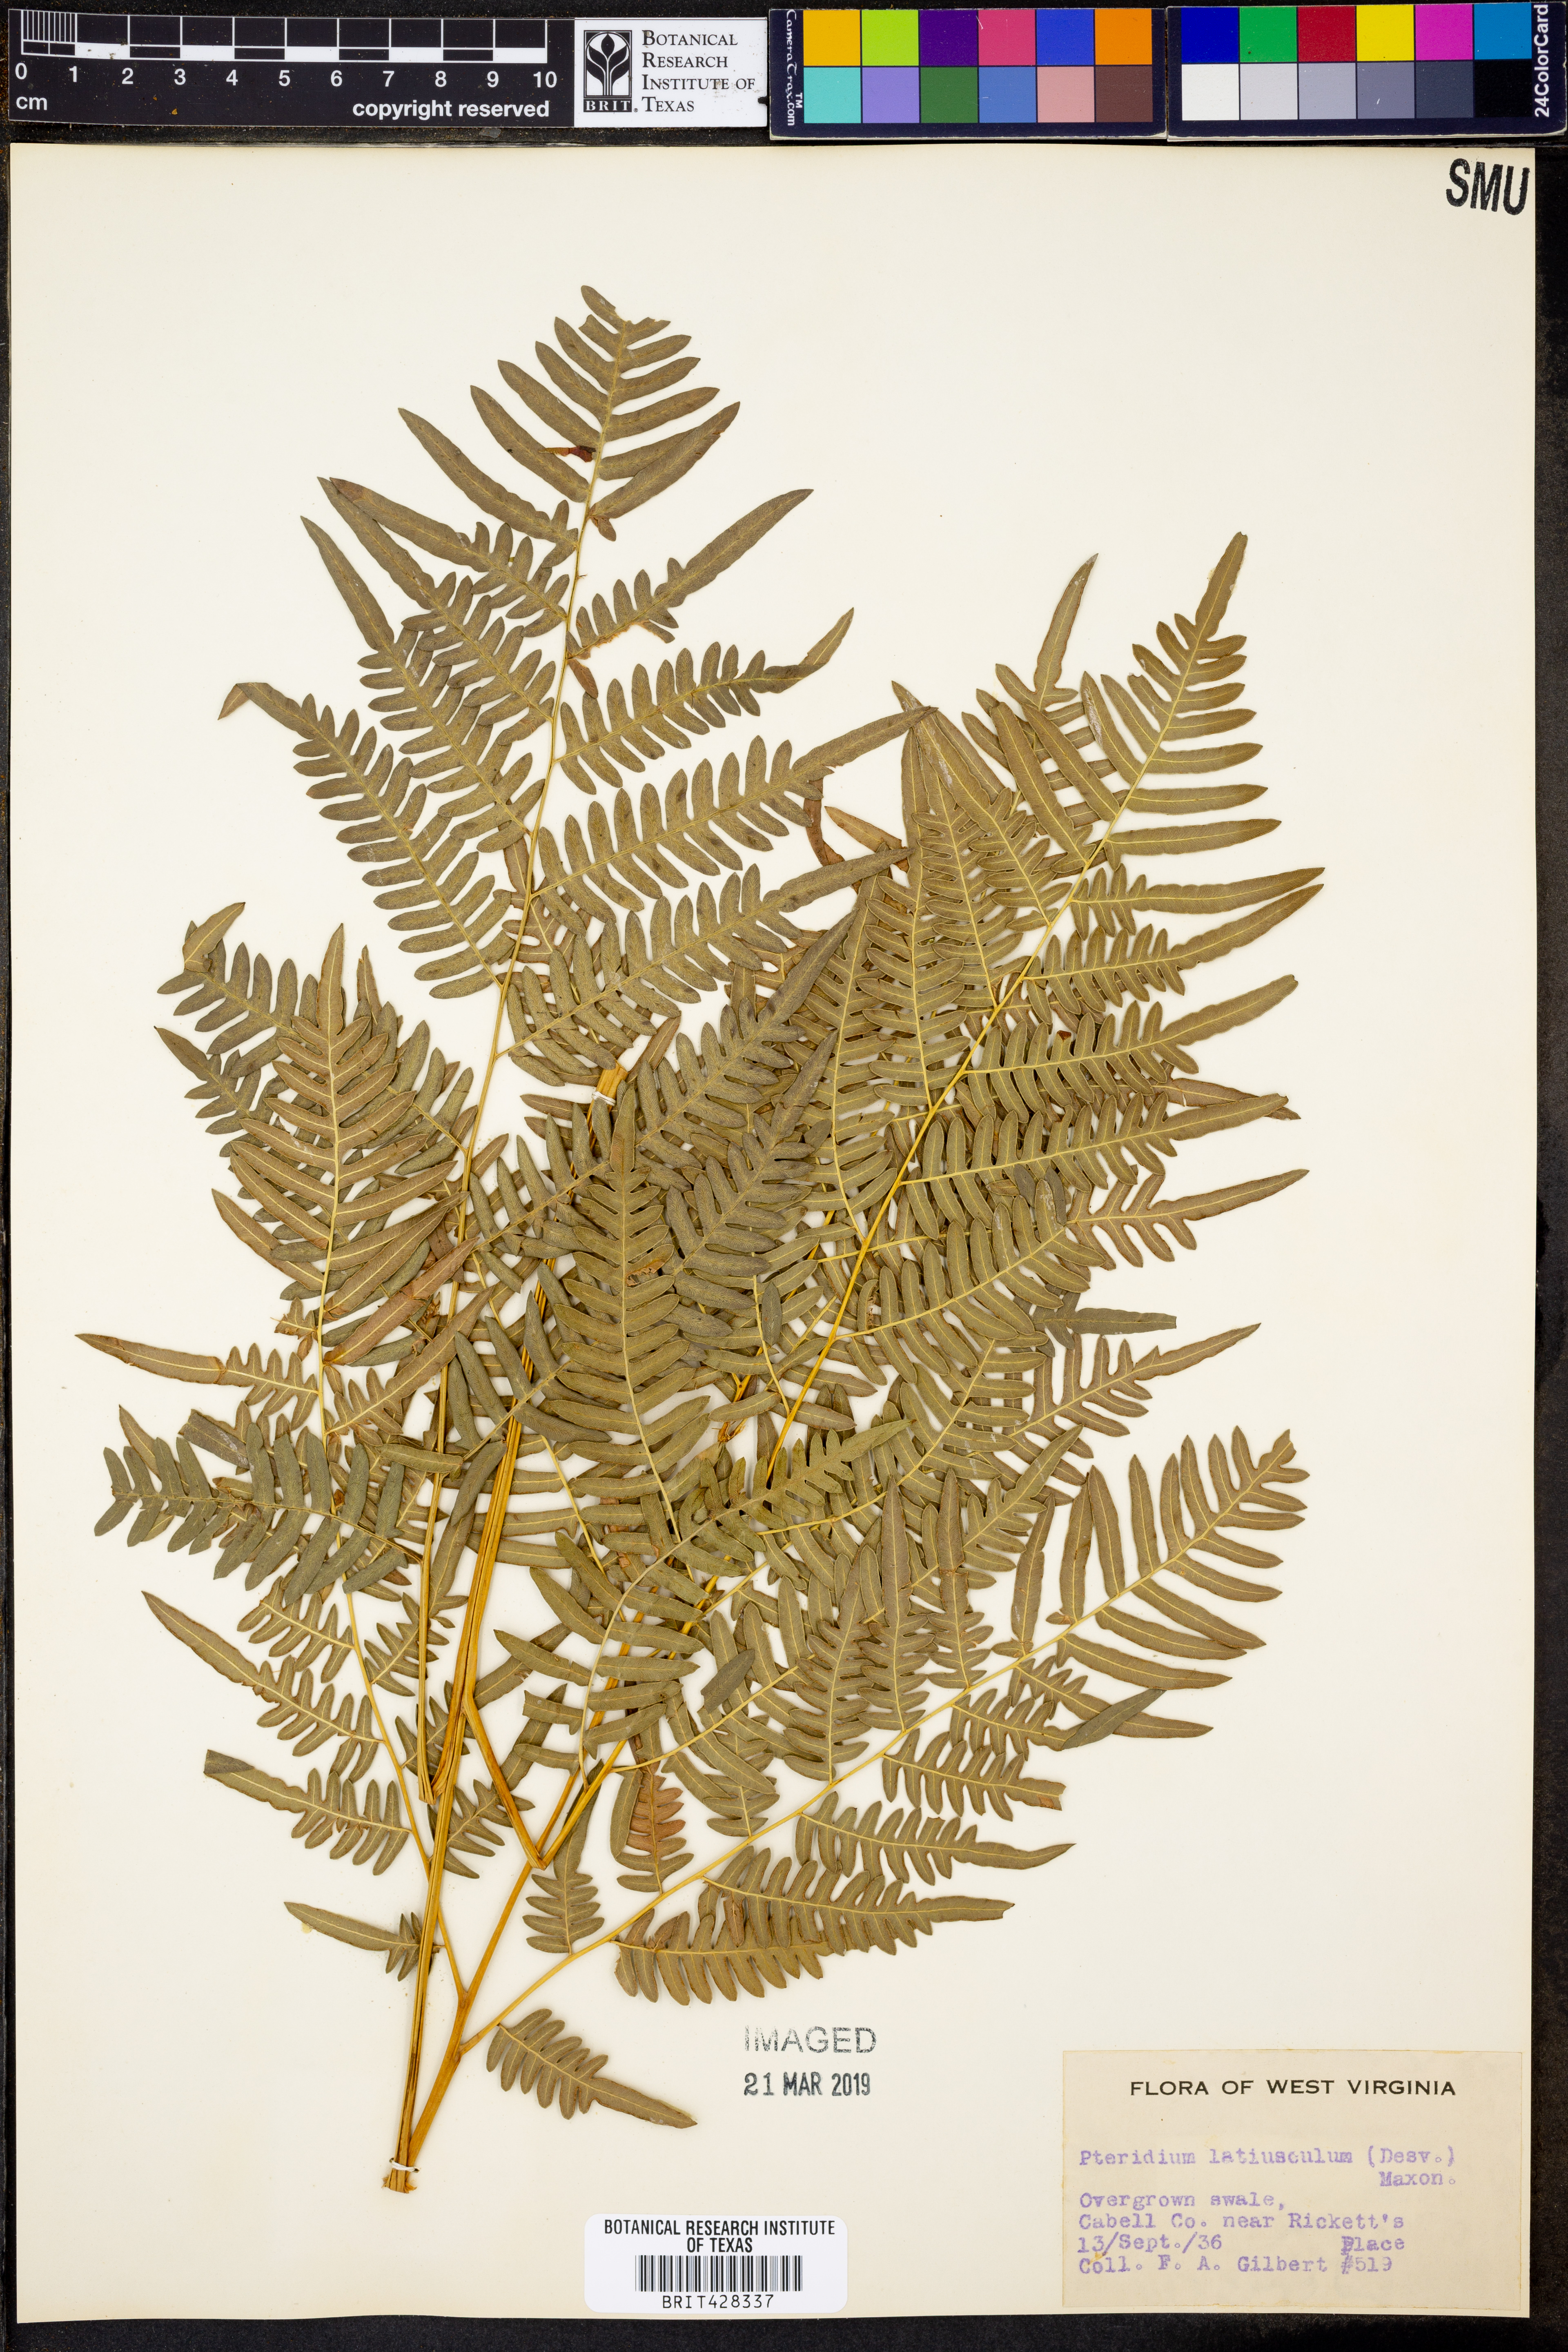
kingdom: Plantae
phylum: Tracheophyta
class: Polypodiopsida
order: Polypodiales
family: Dennstaedtiaceae
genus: Pteridium
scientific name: Pteridium aquilinum
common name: Bracken
